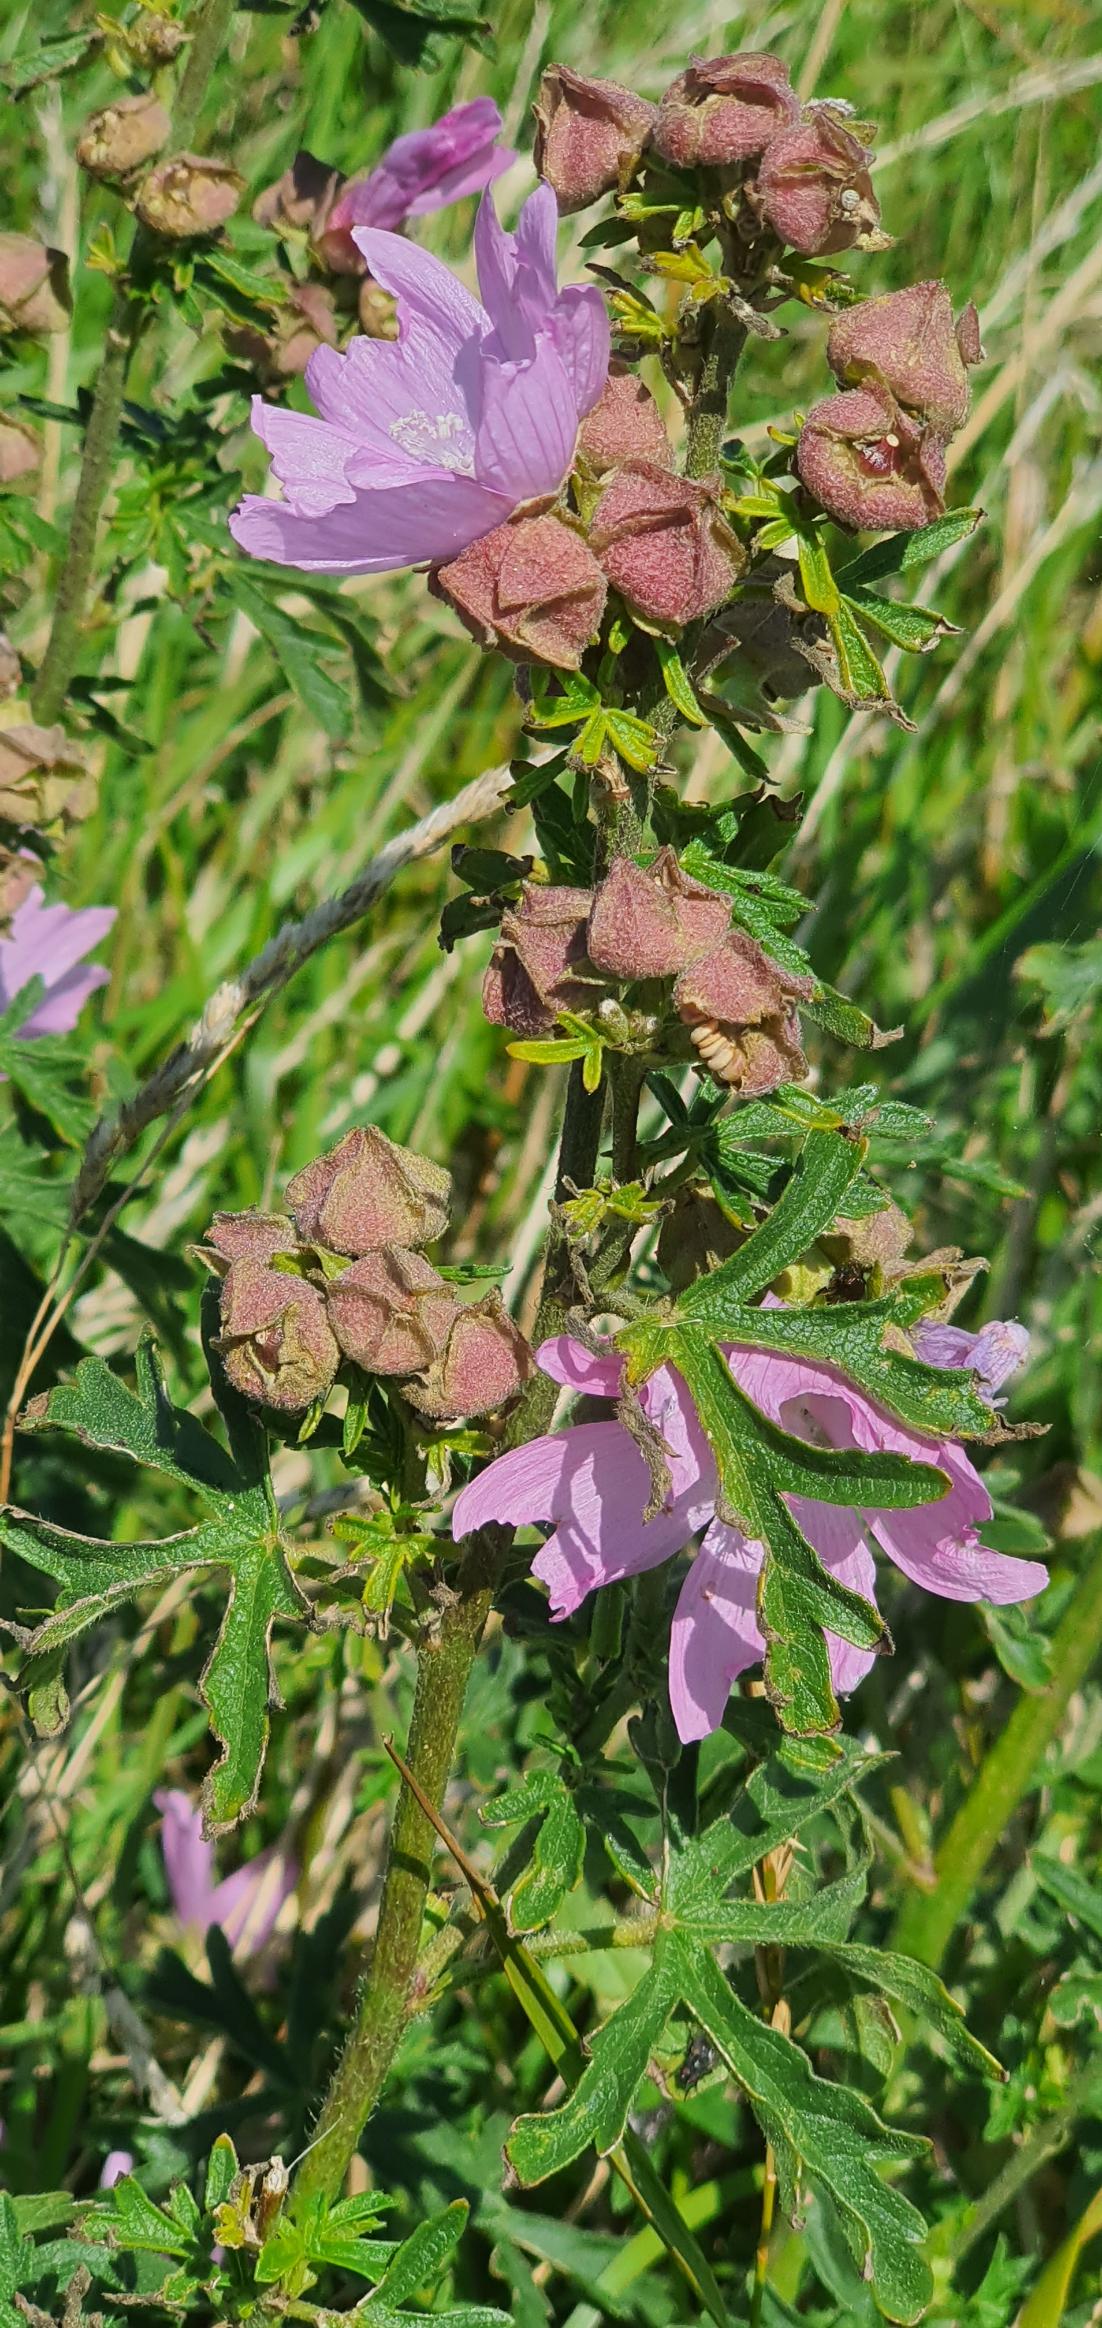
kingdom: Plantae
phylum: Tracheophyta
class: Magnoliopsida
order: Malvales
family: Malvaceae
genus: Malva
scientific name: Malva alcea
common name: Rosen-katost
